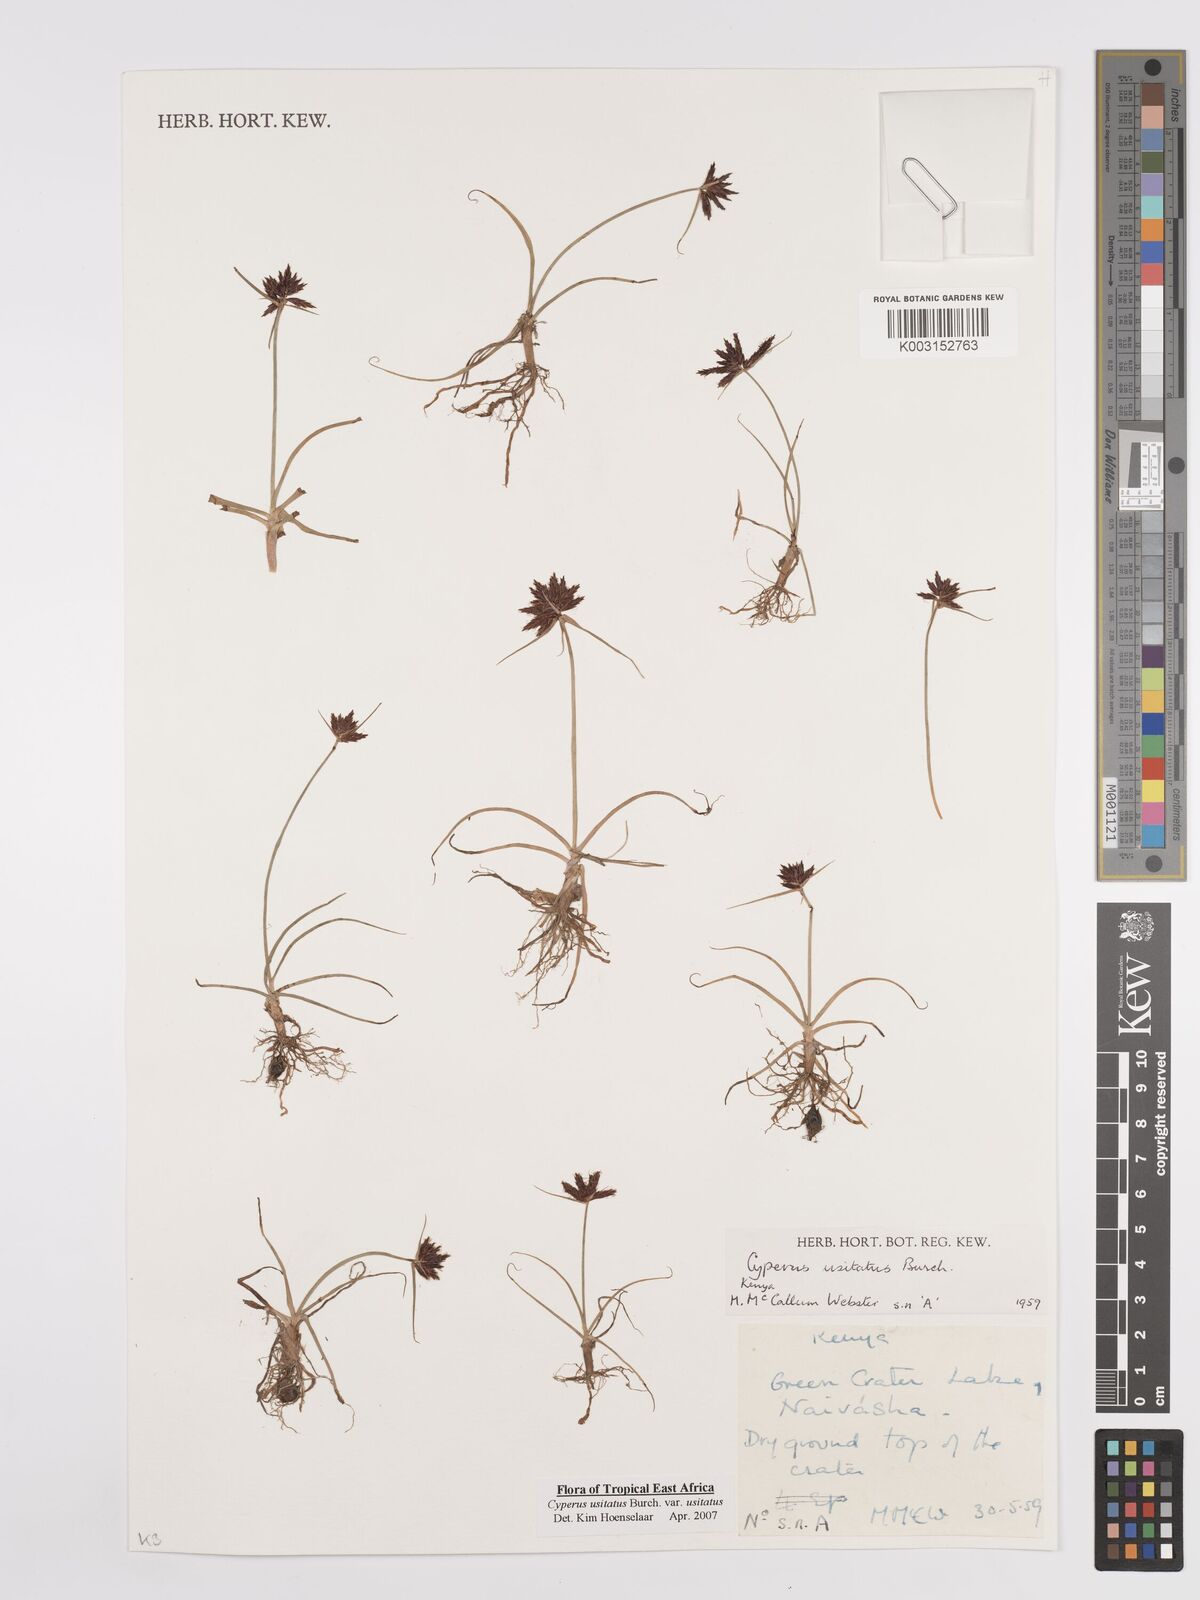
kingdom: Plantae
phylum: Tracheophyta
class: Liliopsida
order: Poales
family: Cyperaceae
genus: Cyperus
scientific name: Cyperus usitatus
